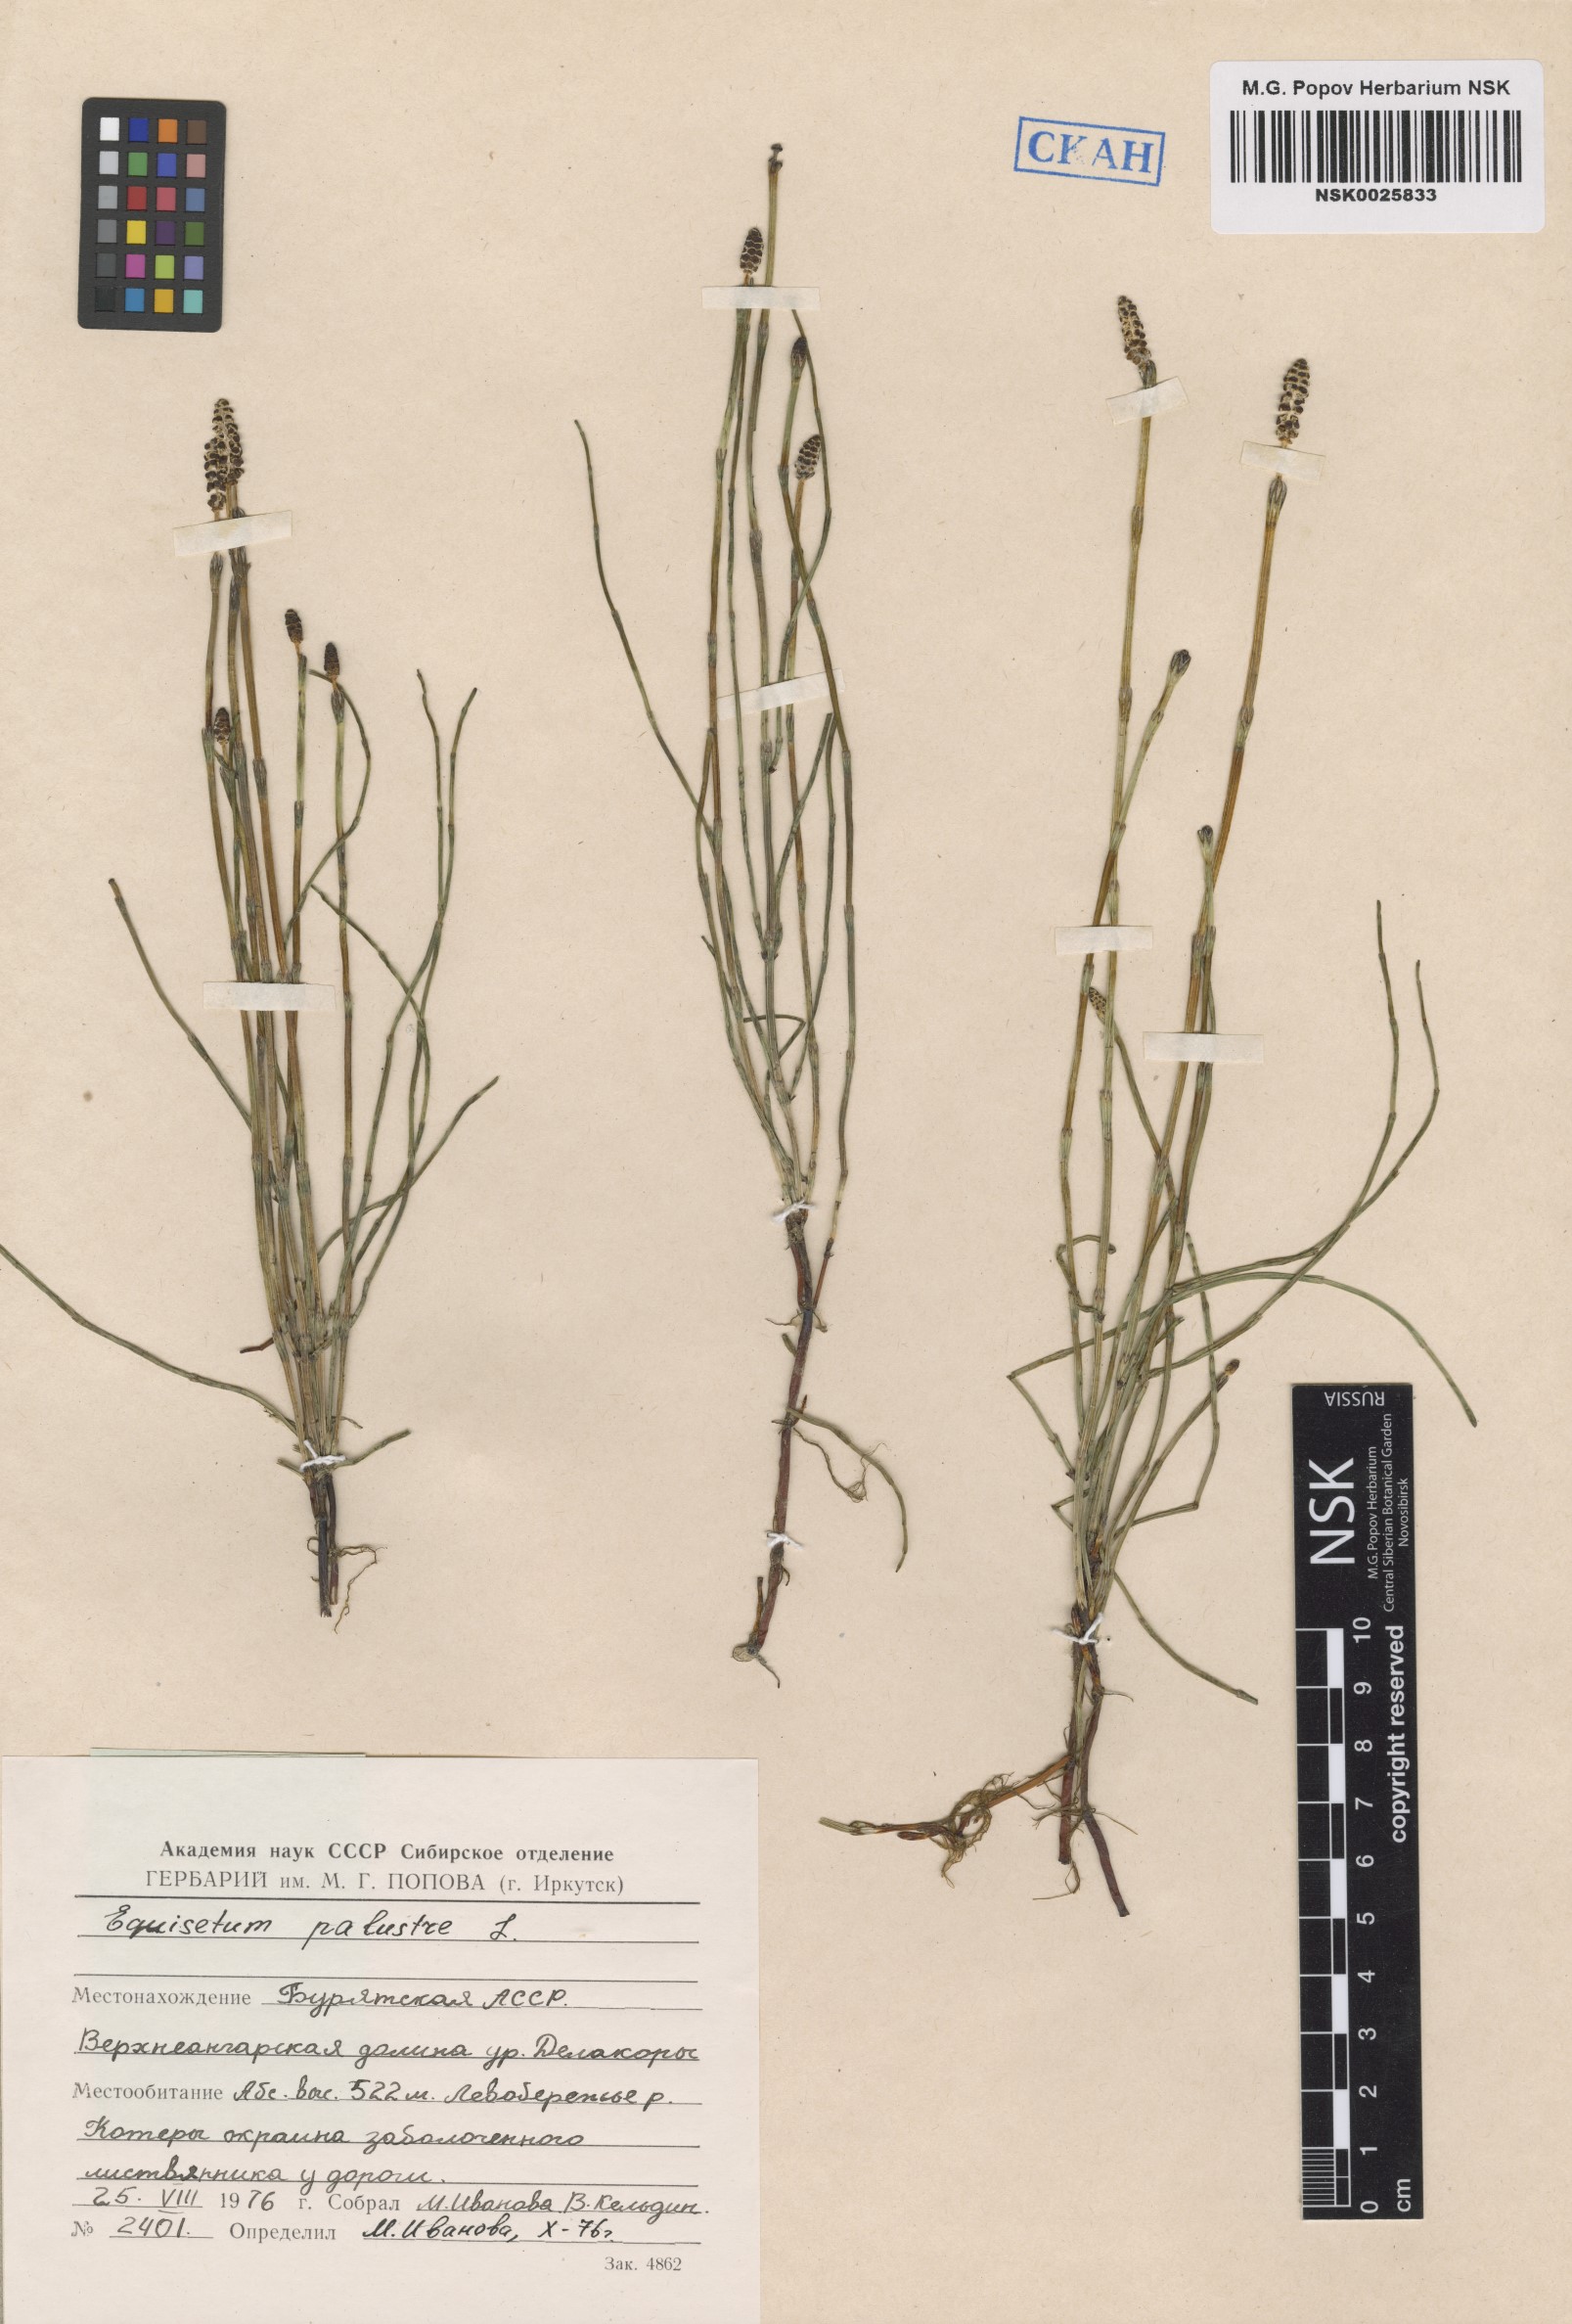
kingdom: Plantae
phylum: Tracheophyta
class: Polypodiopsida
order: Equisetales
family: Equisetaceae
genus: Equisetum
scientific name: Equisetum palustre
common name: Marsh horsetail
